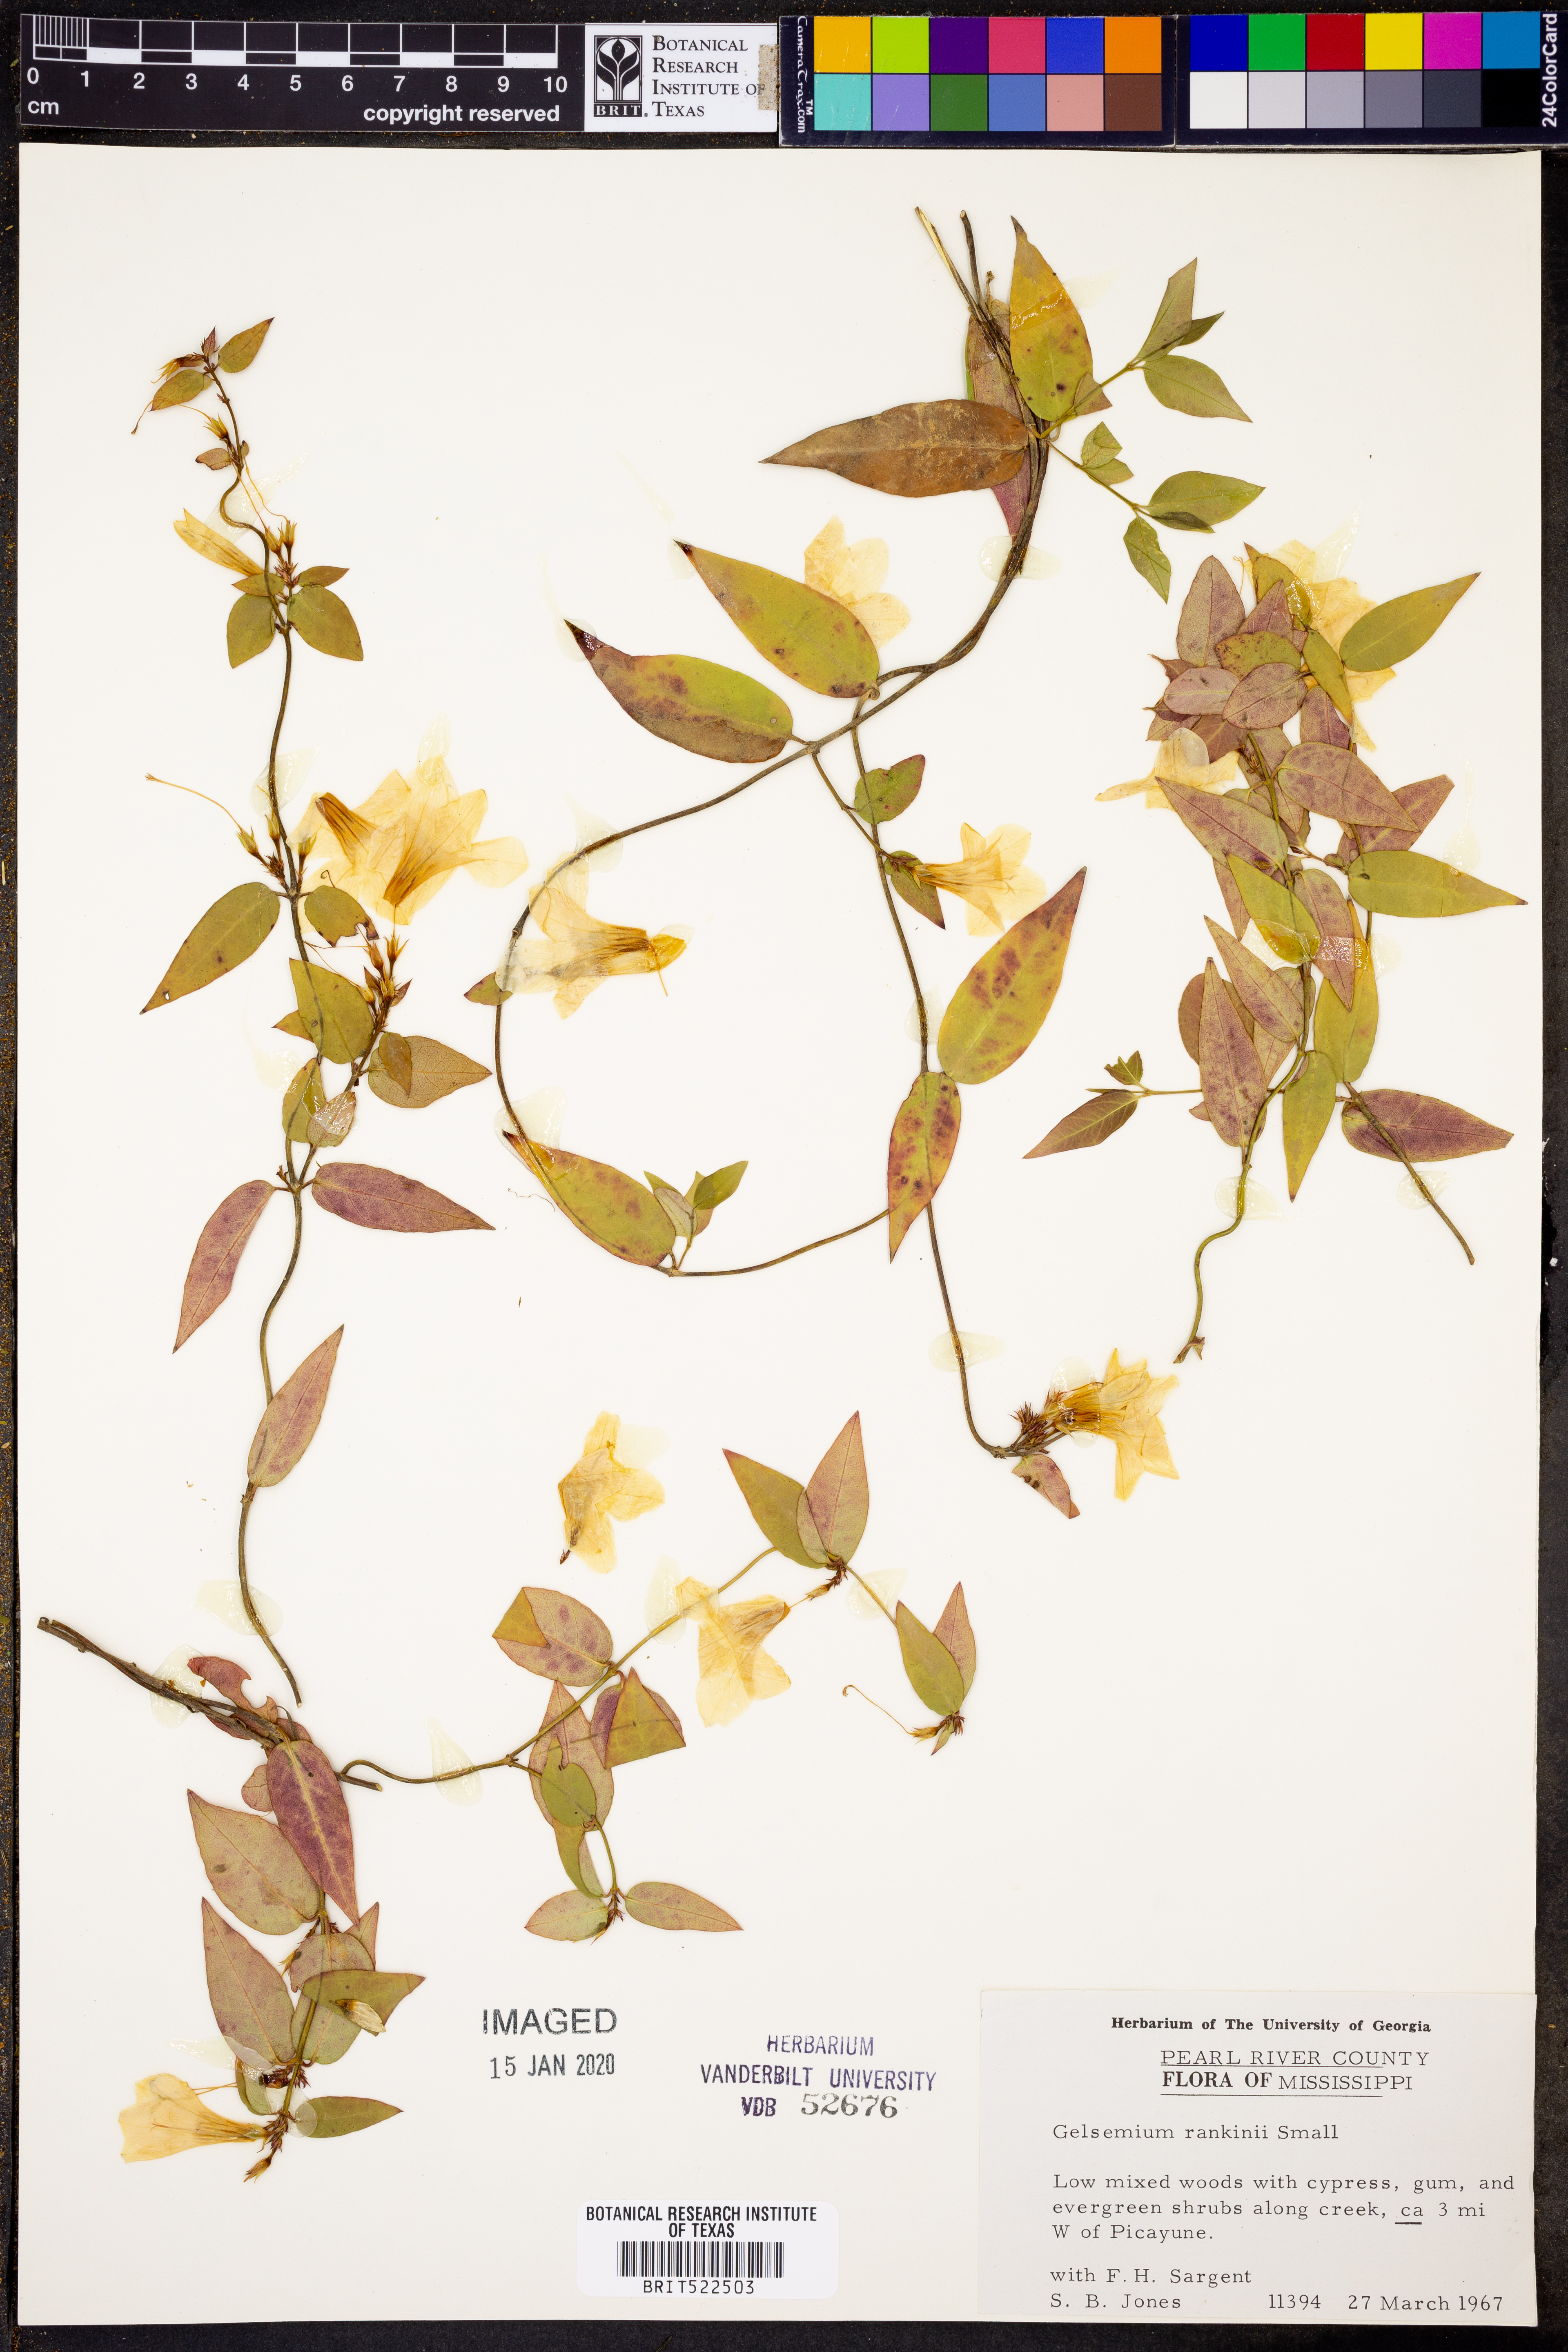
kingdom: Plantae
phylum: Tracheophyta
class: Magnoliopsida
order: Gentianales
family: Gelsemiaceae
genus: Gelsemium
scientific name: Gelsemium rankinii
